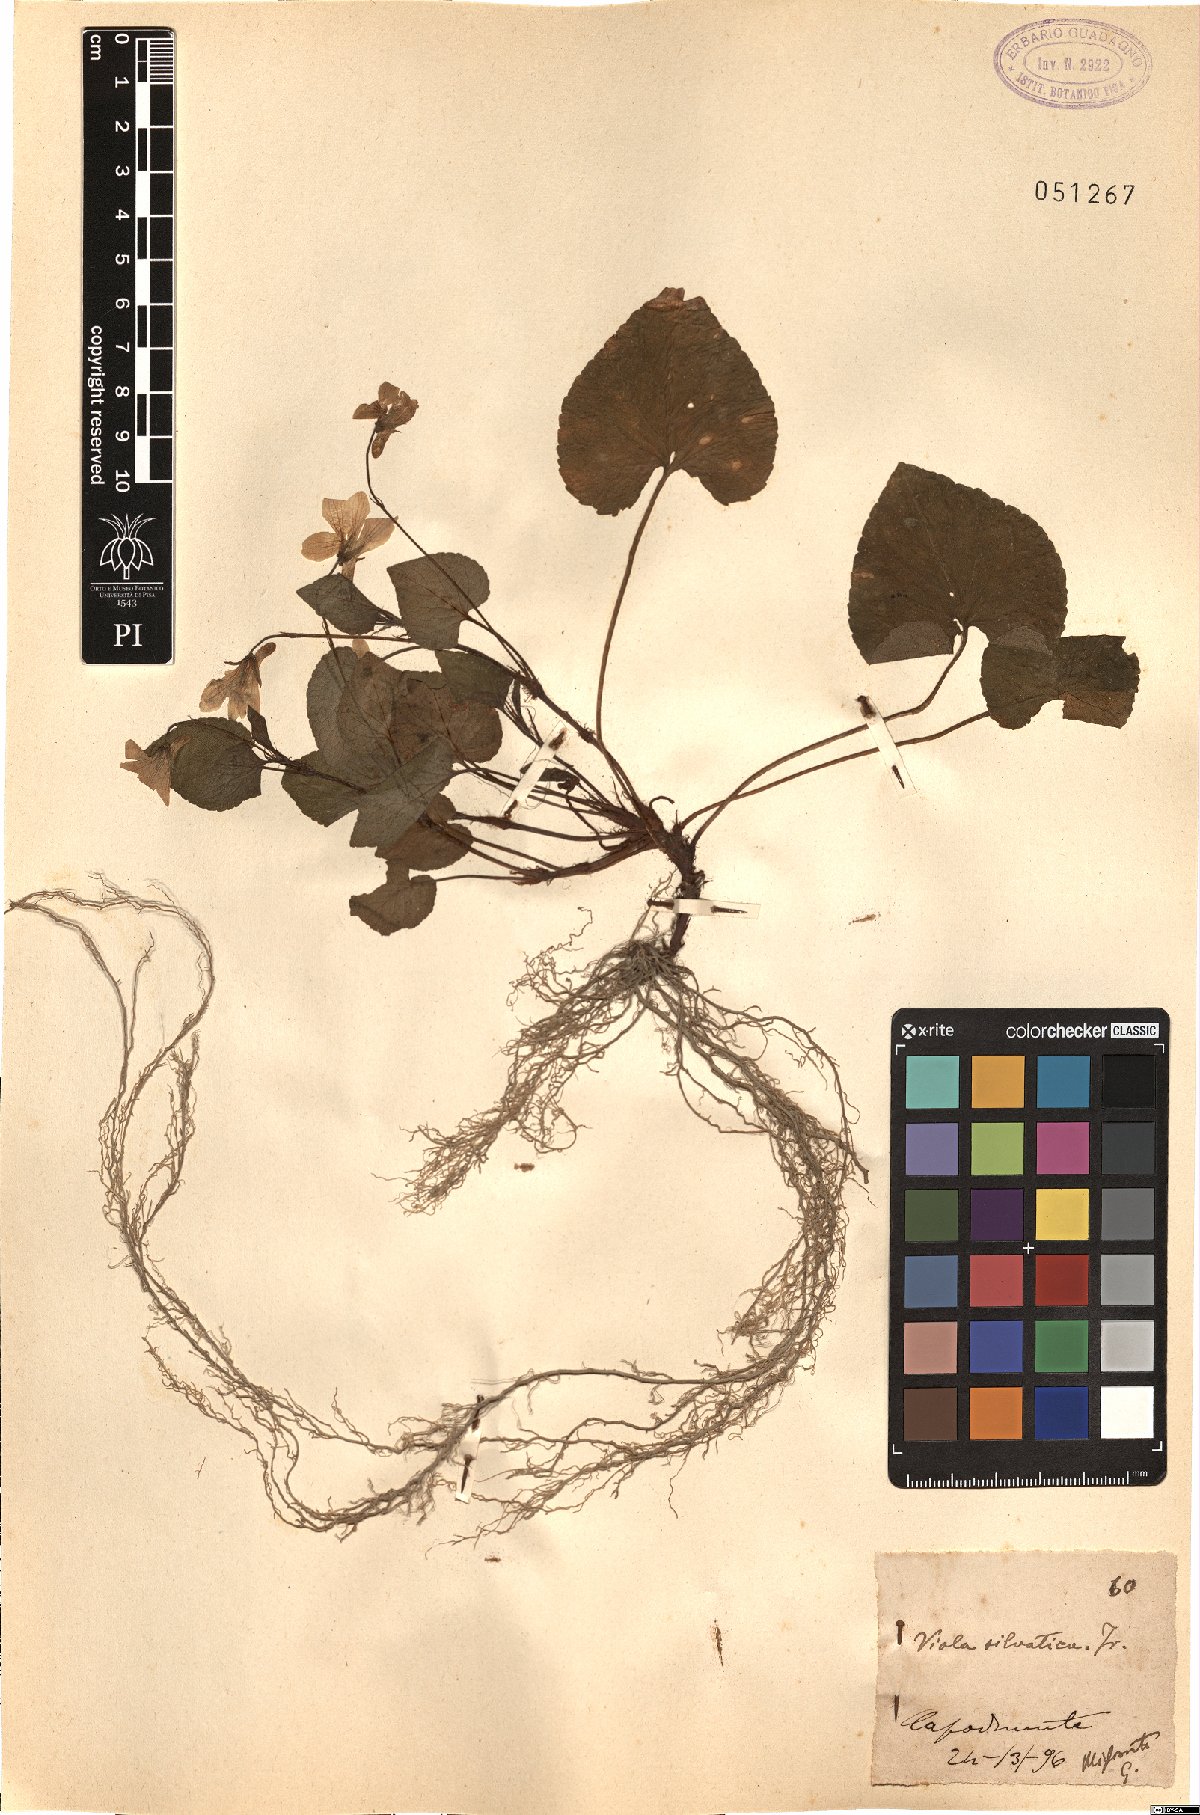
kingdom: Plantae
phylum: Tracheophyta
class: Magnoliopsida
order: Malpighiales
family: Violaceae
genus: Viola
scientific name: Viola riviniana
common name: Common dog-violet
